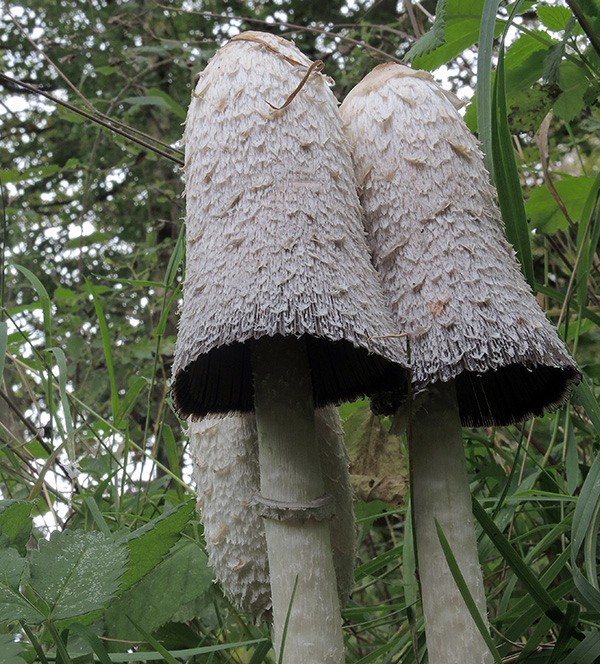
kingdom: Fungi
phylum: Basidiomycota
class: Agaricomycetes
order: Agaricales
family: Agaricaceae
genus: Coprinus
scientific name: Coprinus comatus
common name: stor parykhat
